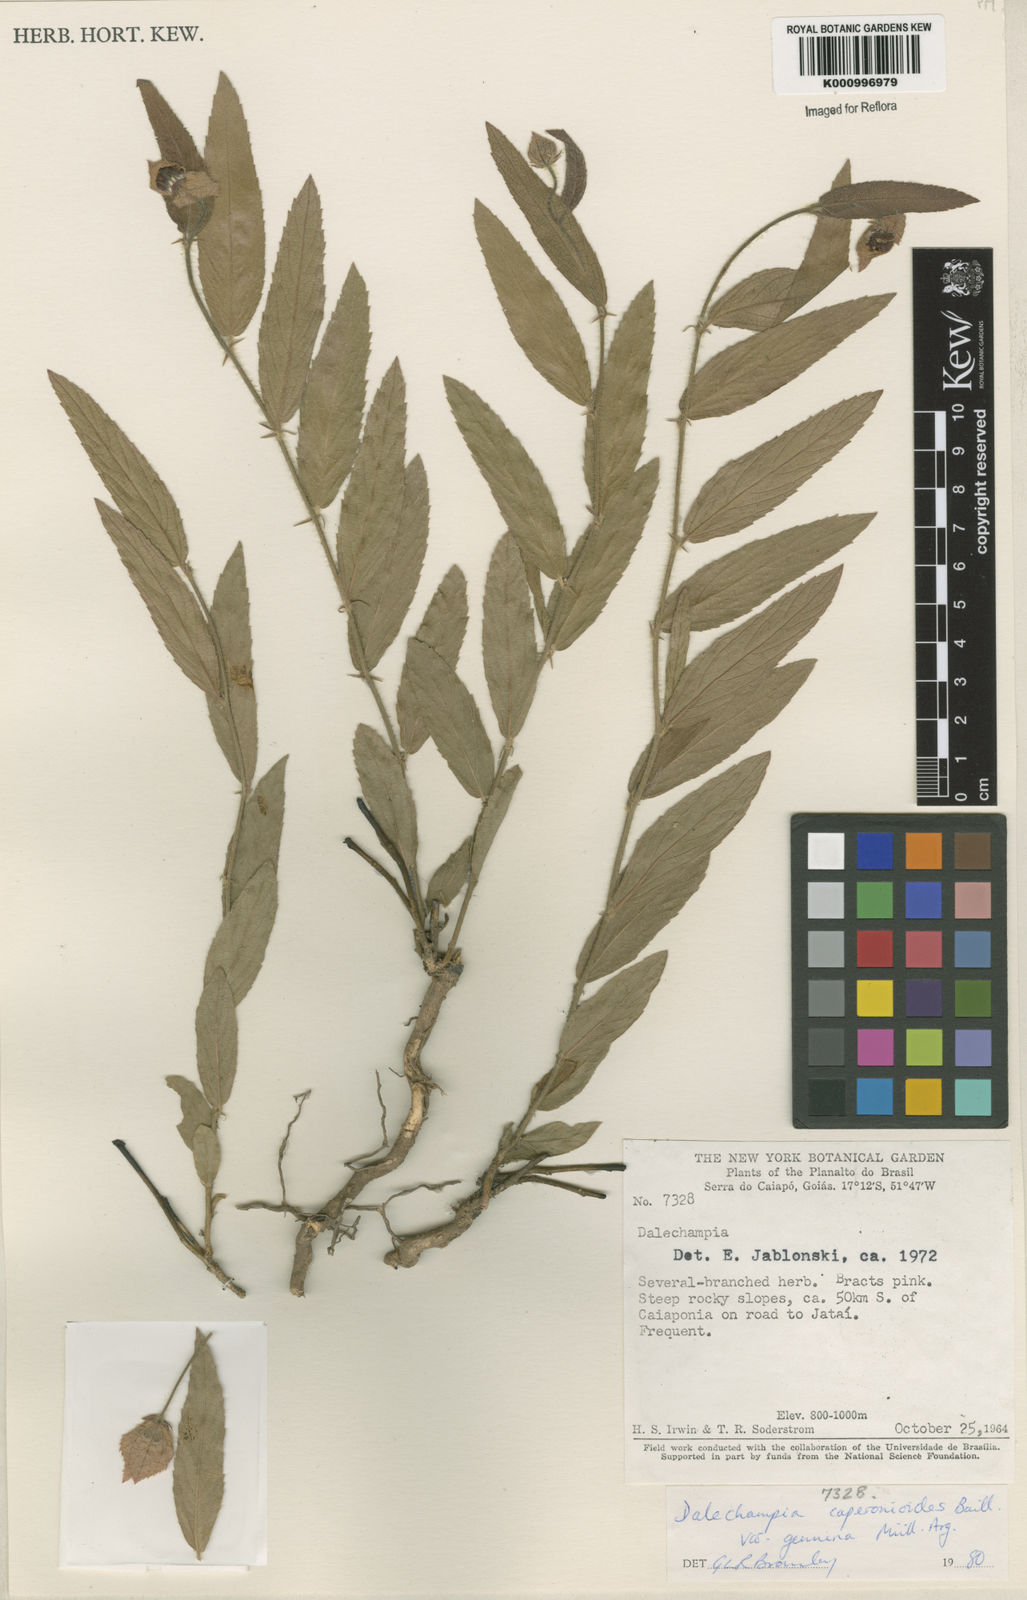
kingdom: Plantae
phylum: Tracheophyta
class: Magnoliopsida
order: Malpighiales
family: Euphorbiaceae
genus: Dalechampia
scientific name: Dalechampia caperonioides
